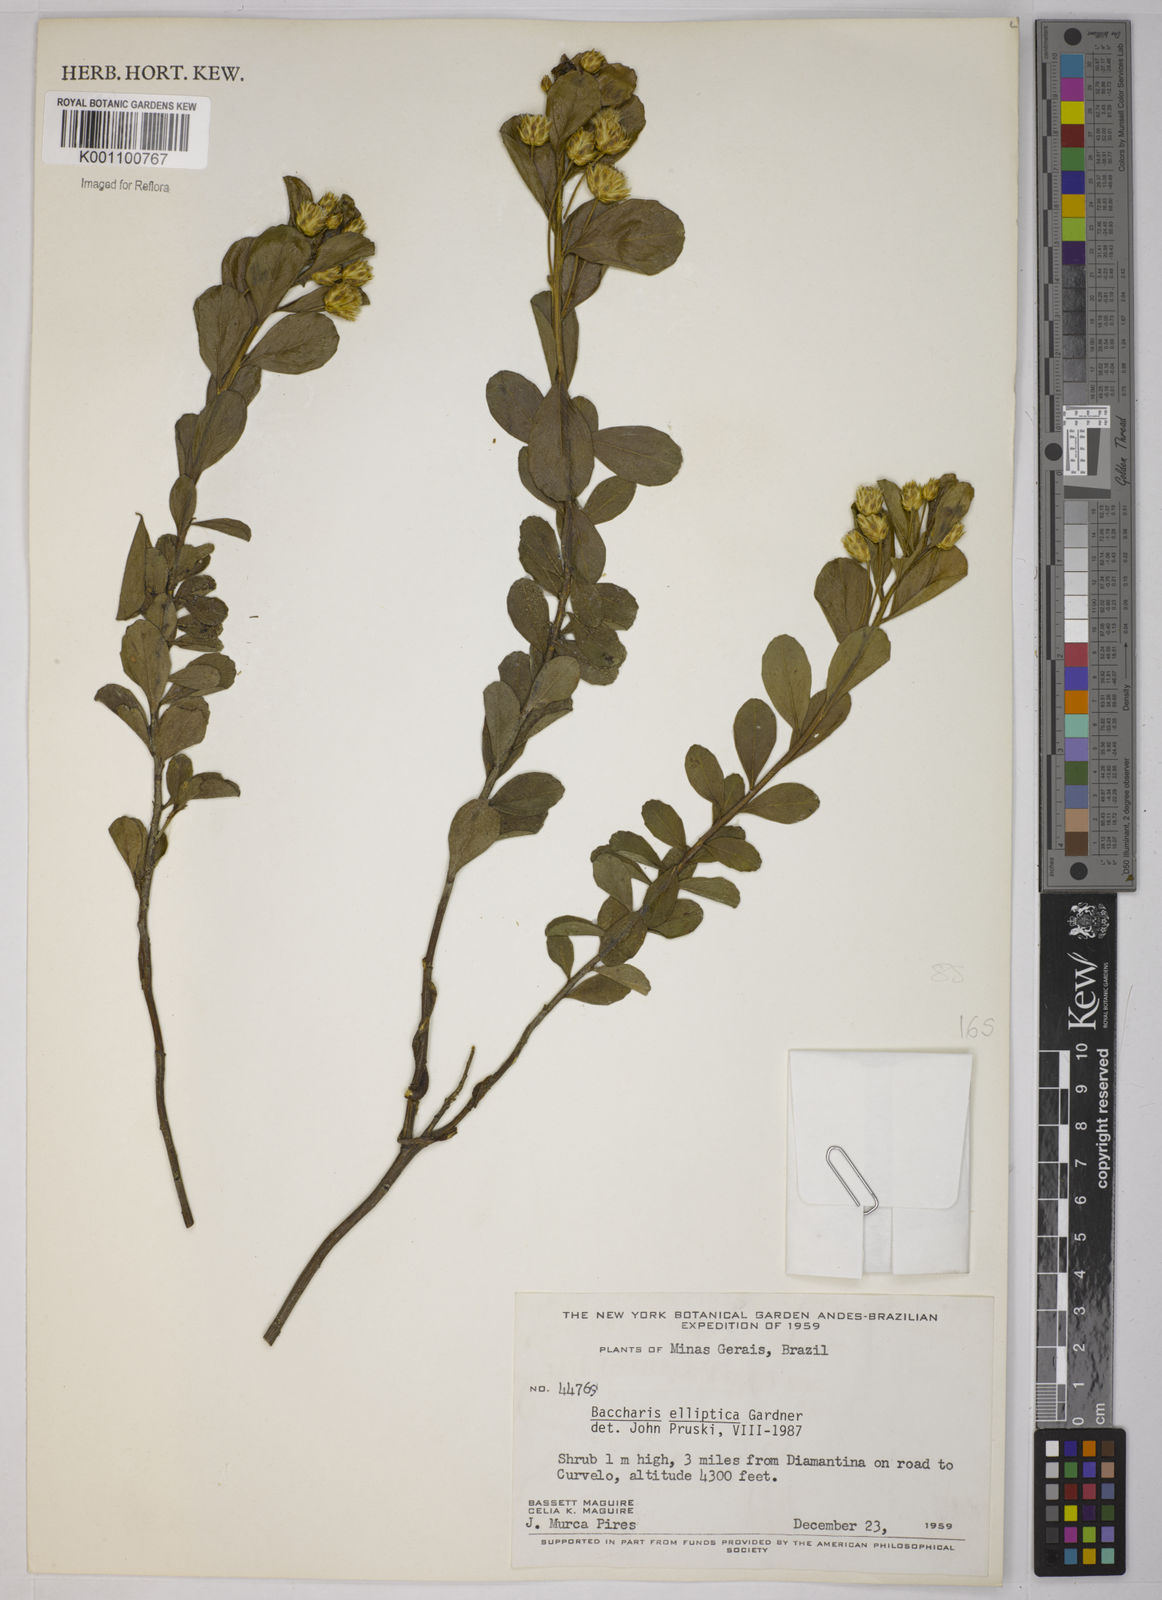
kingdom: Plantae
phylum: Tracheophyta
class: Magnoliopsida
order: Asterales
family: Asteraceae
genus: Baccharis
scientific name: Baccharis elliptica
